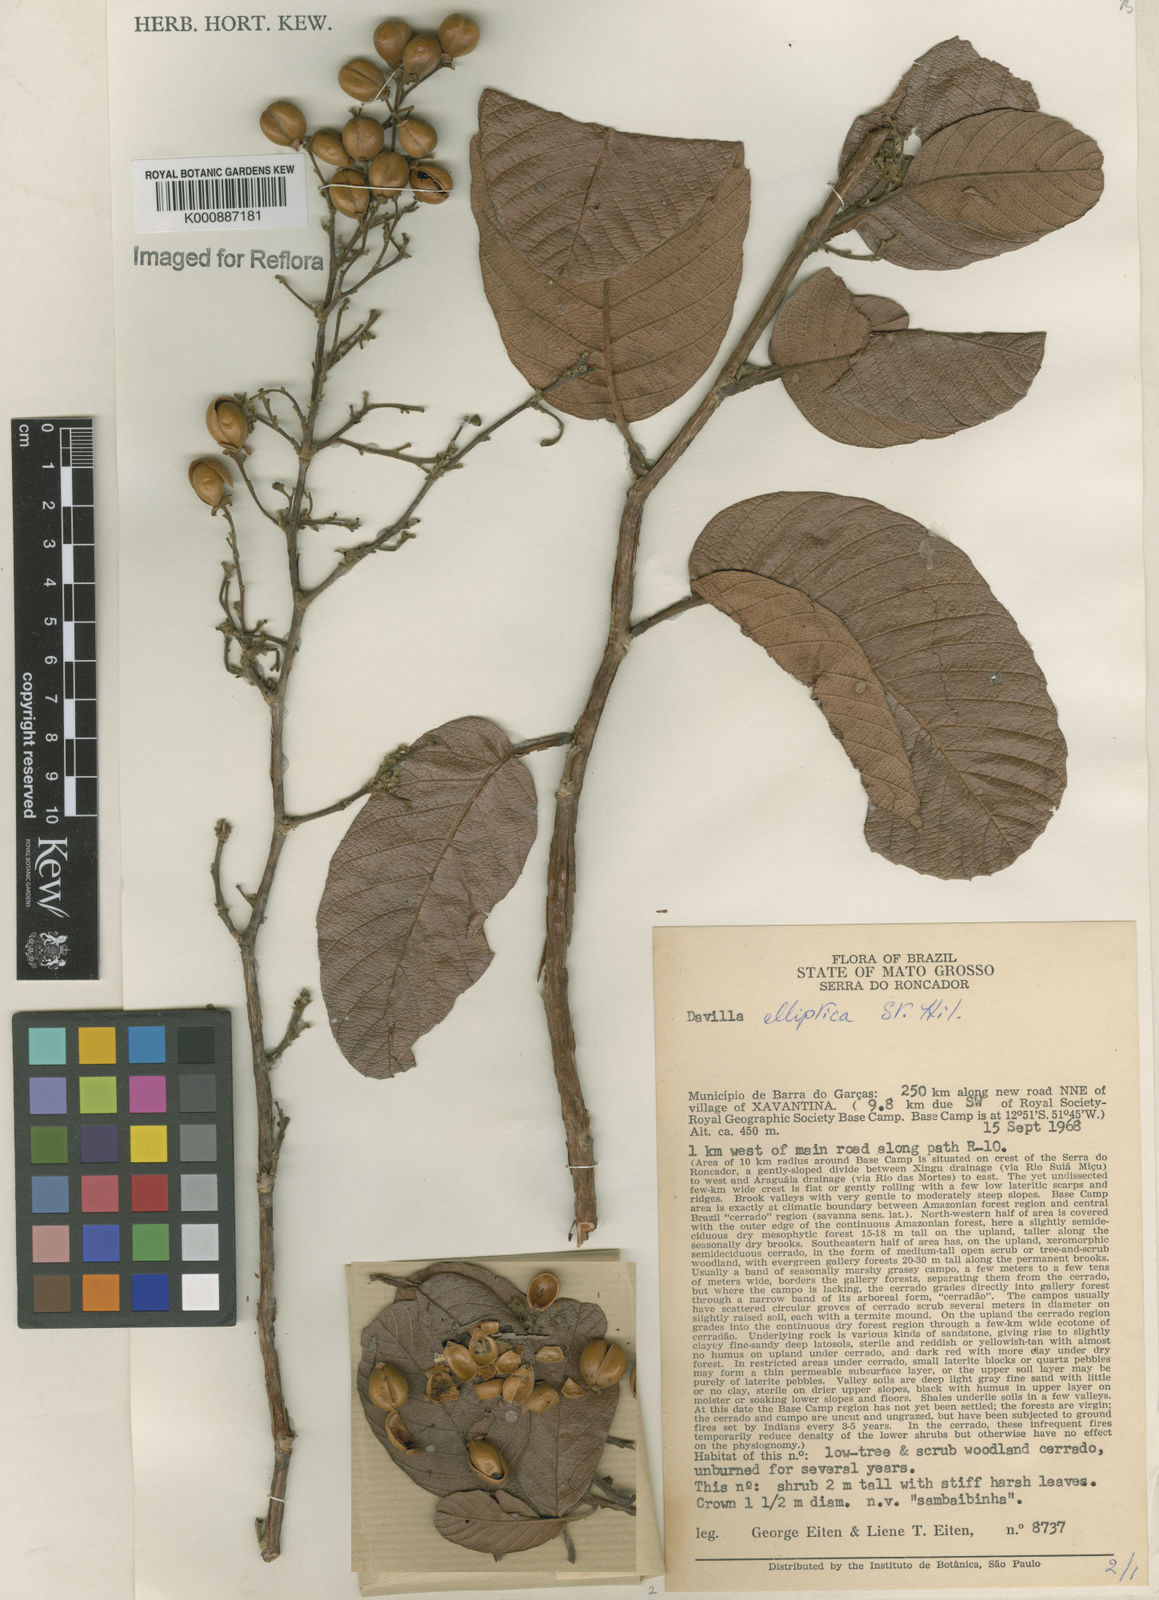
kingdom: Plantae
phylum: Tracheophyta
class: Magnoliopsida
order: Dilleniales
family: Dilleniaceae
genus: Davilla
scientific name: Davilla elliptica
